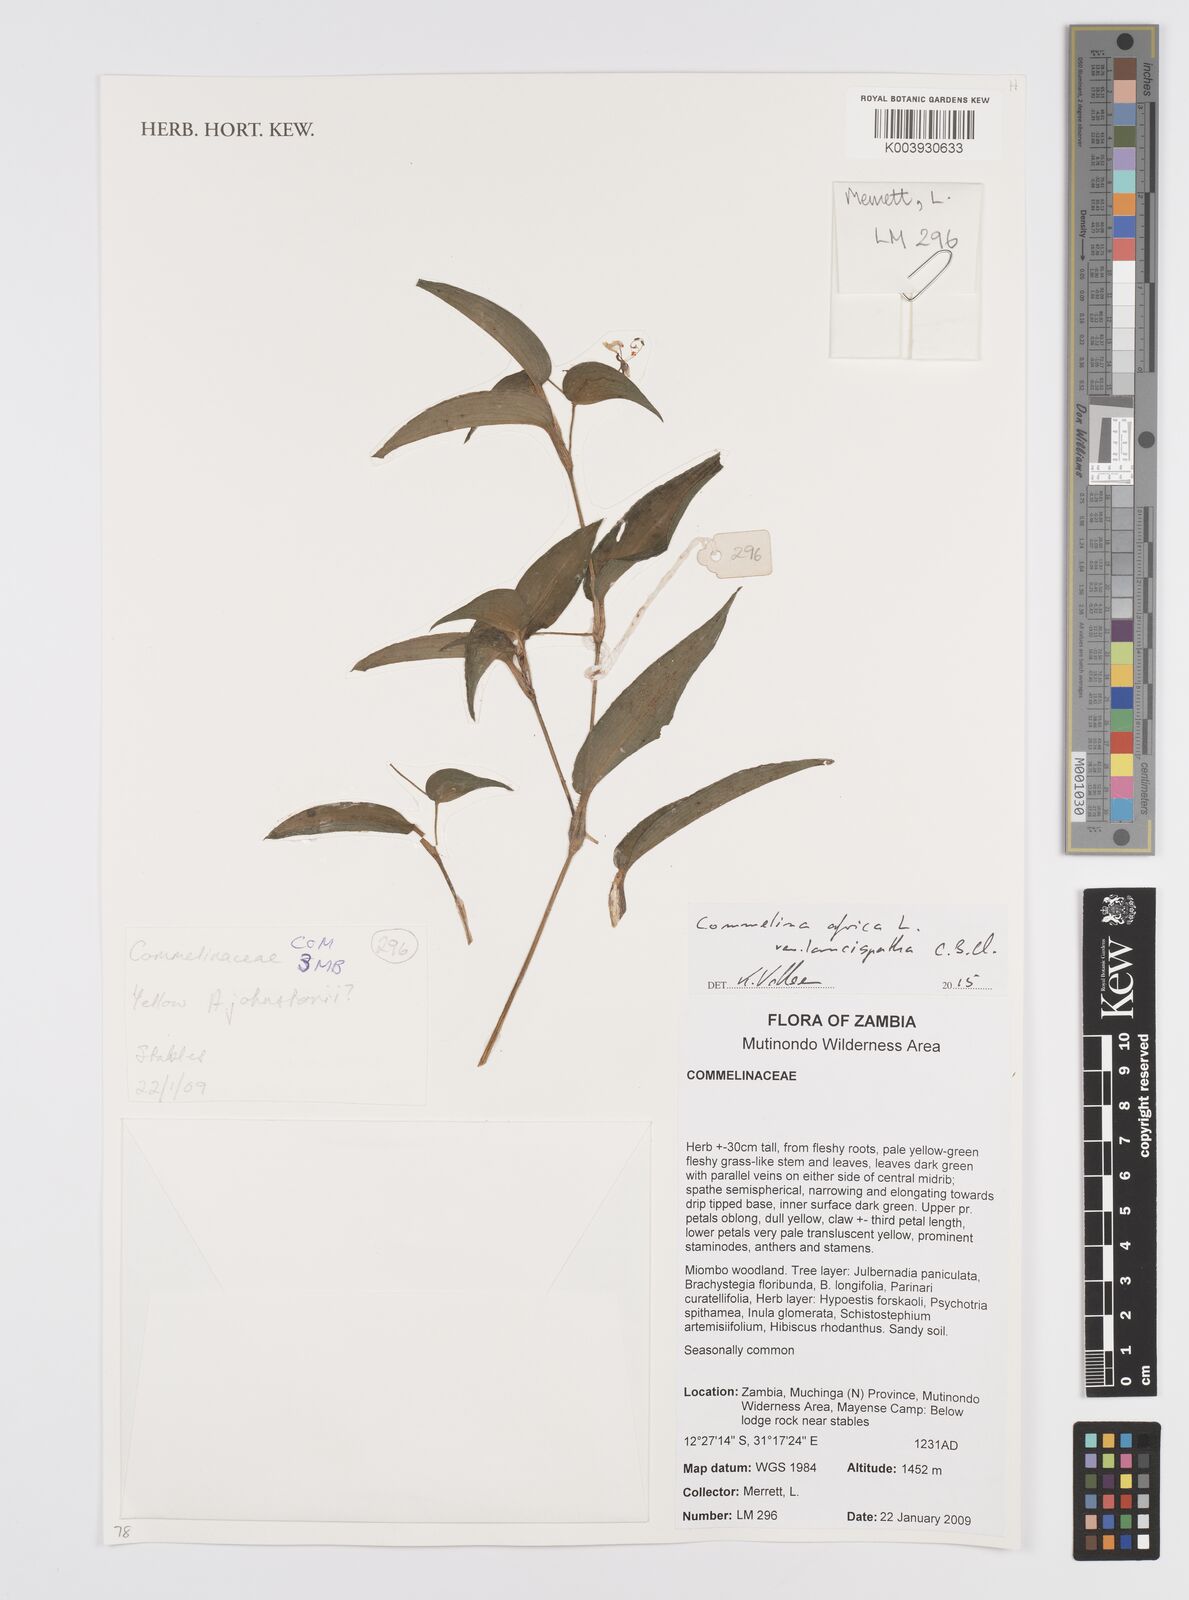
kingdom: Plantae
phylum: Tracheophyta
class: Liliopsida
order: Commelinales
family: Commelinaceae
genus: Commelina
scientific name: Commelina africana
